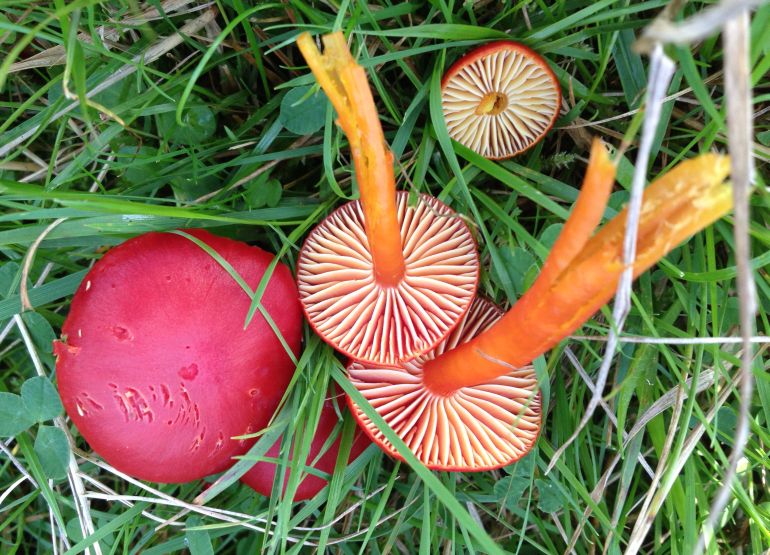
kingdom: Fungi
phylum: Basidiomycota
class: Agaricomycetes
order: Agaricales
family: Hygrophoraceae
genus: Hygrocybe
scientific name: Hygrocybe coccinea
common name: cinnober-vokshat
